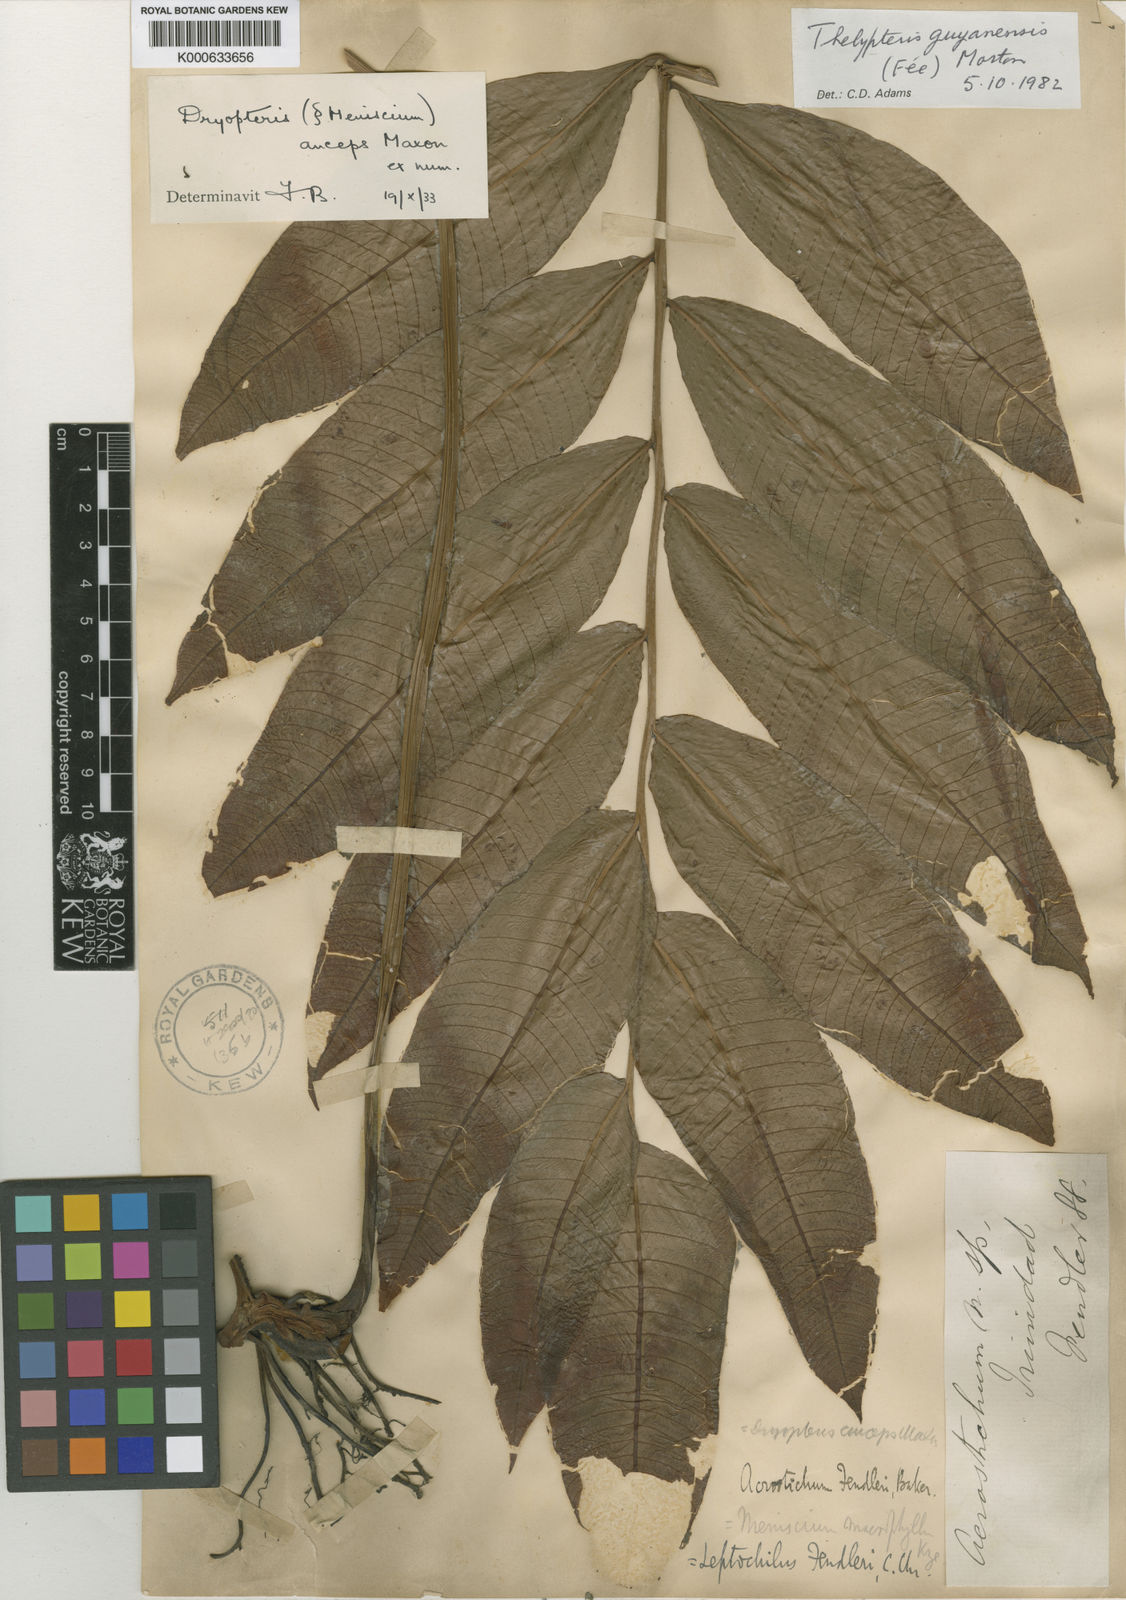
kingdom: Plantae
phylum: Tracheophyta
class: Polypodiopsida
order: Polypodiales
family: Thelypteridaceae
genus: Meniscium
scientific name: Meniscium
